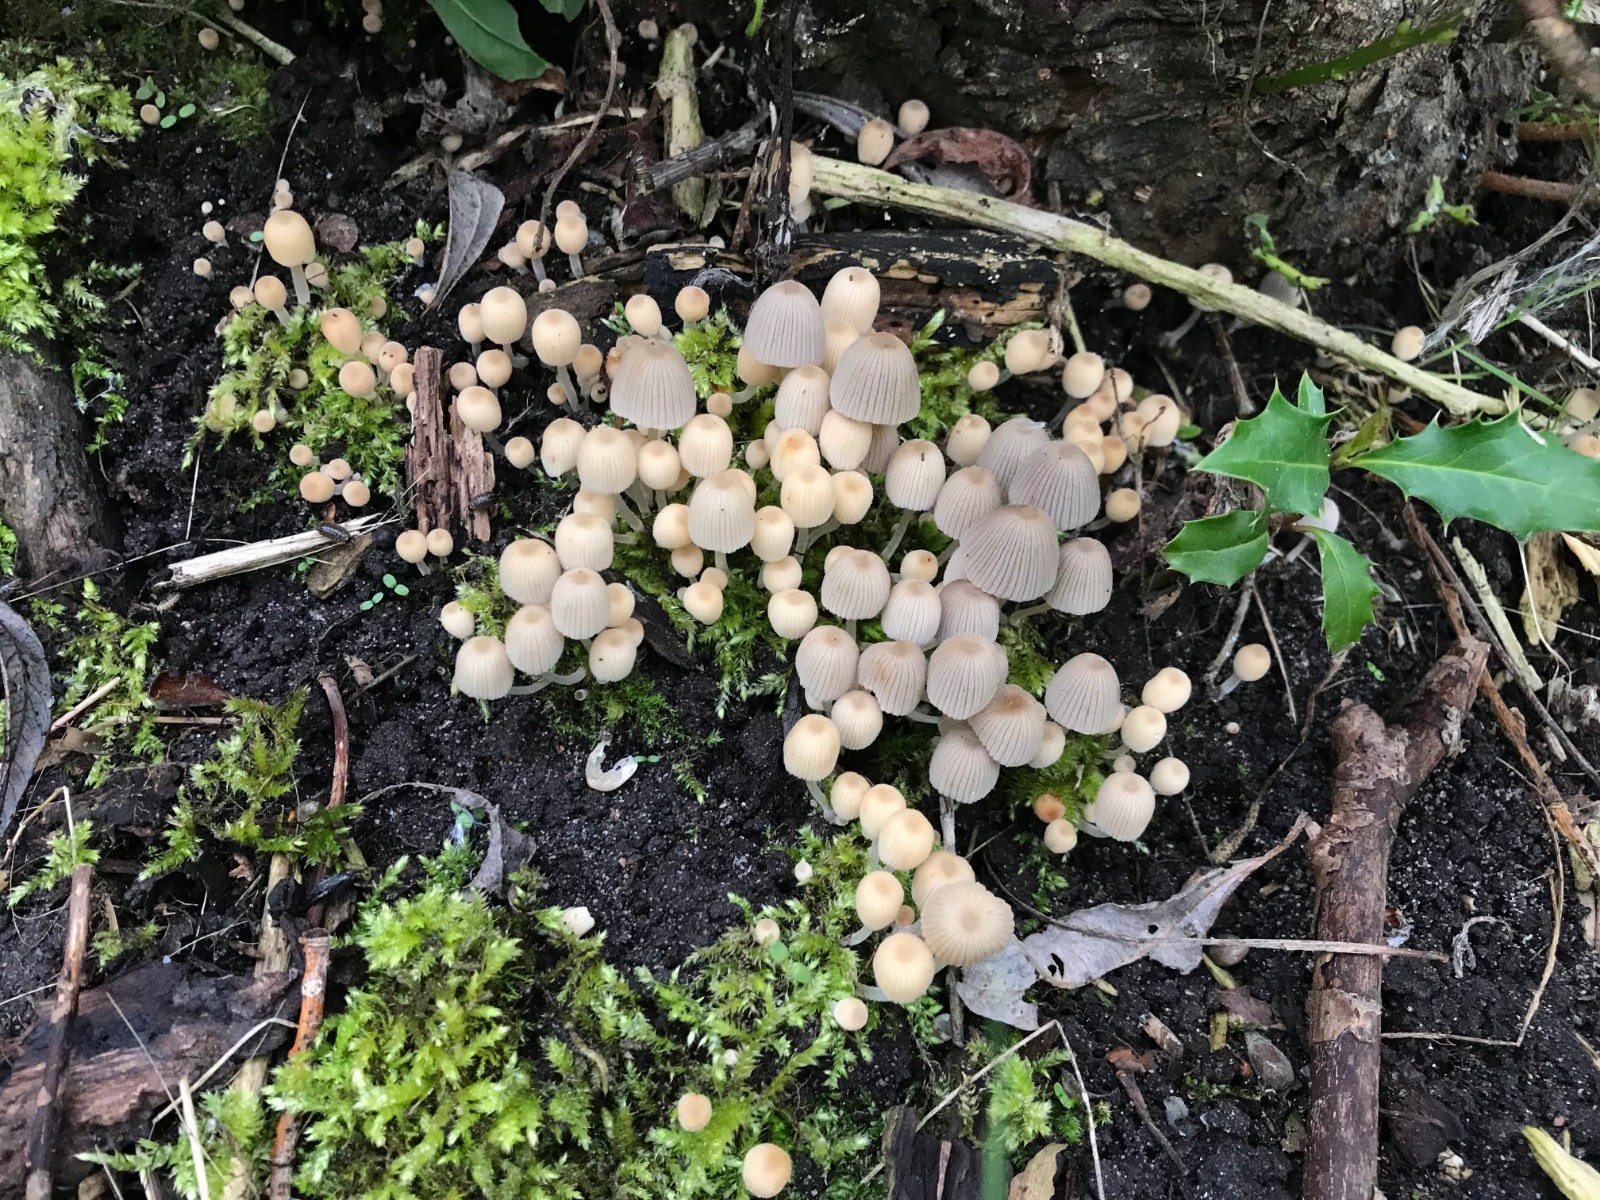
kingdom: Fungi
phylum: Basidiomycota
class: Agaricomycetes
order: Agaricales
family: Psathyrellaceae
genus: Coprinellus
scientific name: Coprinellus disseminatus
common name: bredsået blækhat
